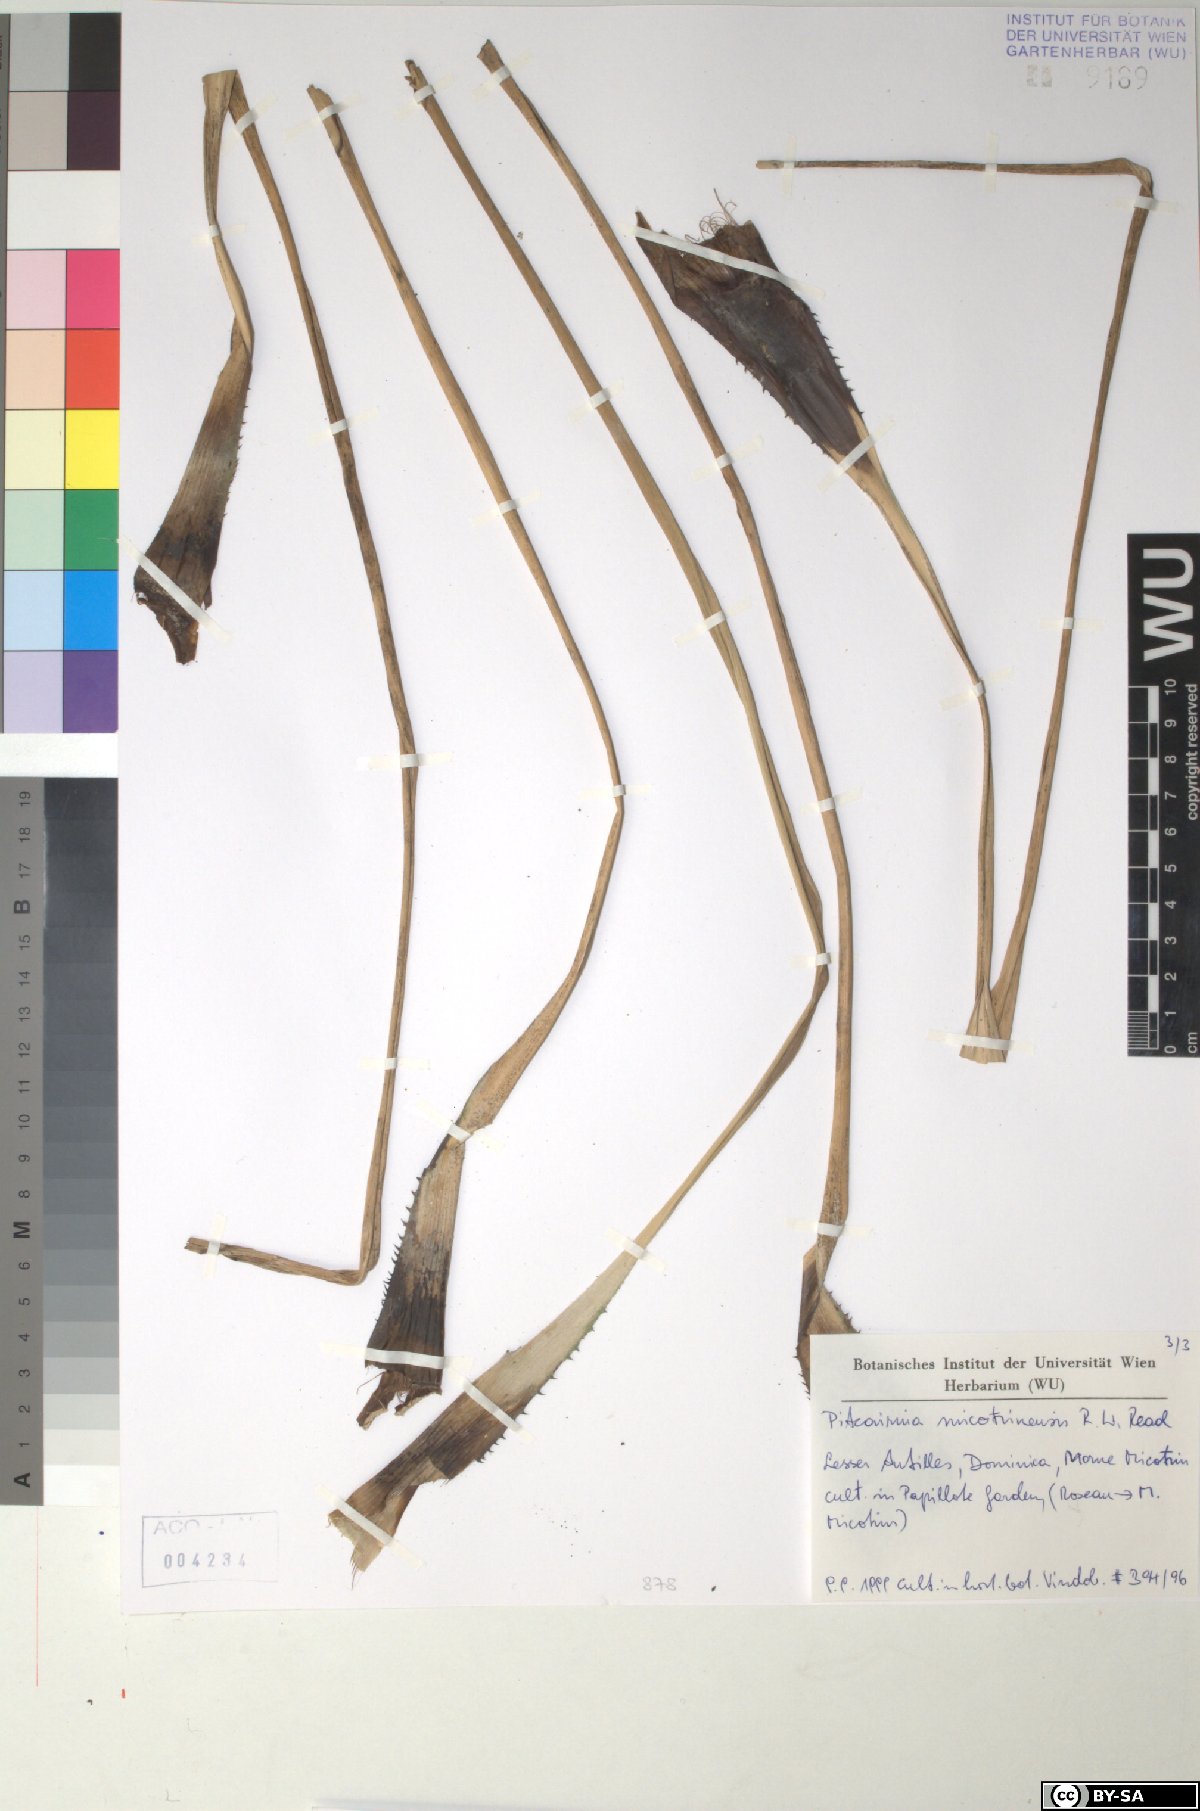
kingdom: Plantae
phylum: Tracheophyta
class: Liliopsida
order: Poales
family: Bromeliaceae
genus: Pitcairnia
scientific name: Pitcairnia micotrinensis
